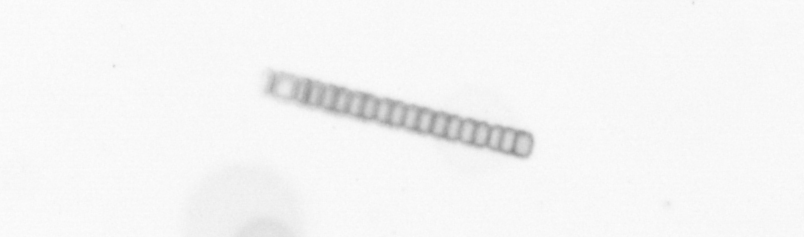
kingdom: Chromista
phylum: Ochrophyta
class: Bacillariophyceae
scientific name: Bacillariophyceae
